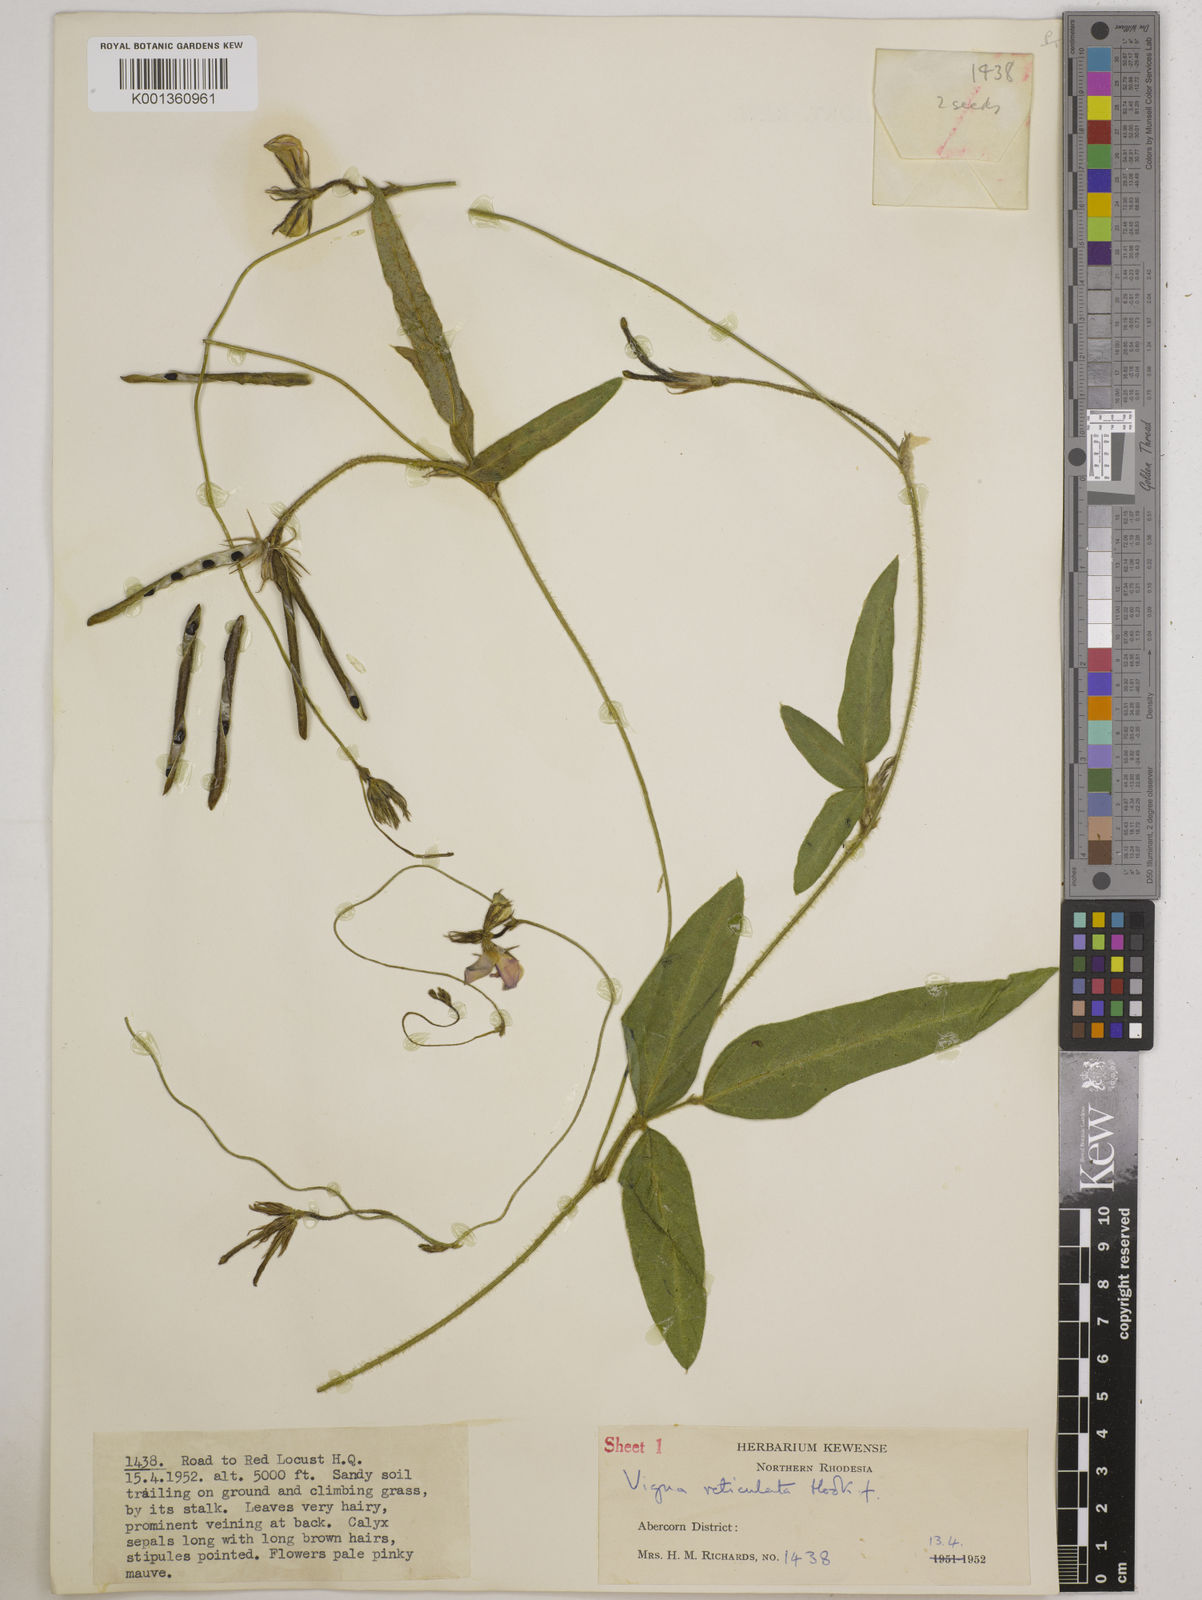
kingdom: Plantae
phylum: Tracheophyta
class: Magnoliopsida
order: Fabales
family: Fabaceae
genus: Vigna
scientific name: Vigna reticulata
